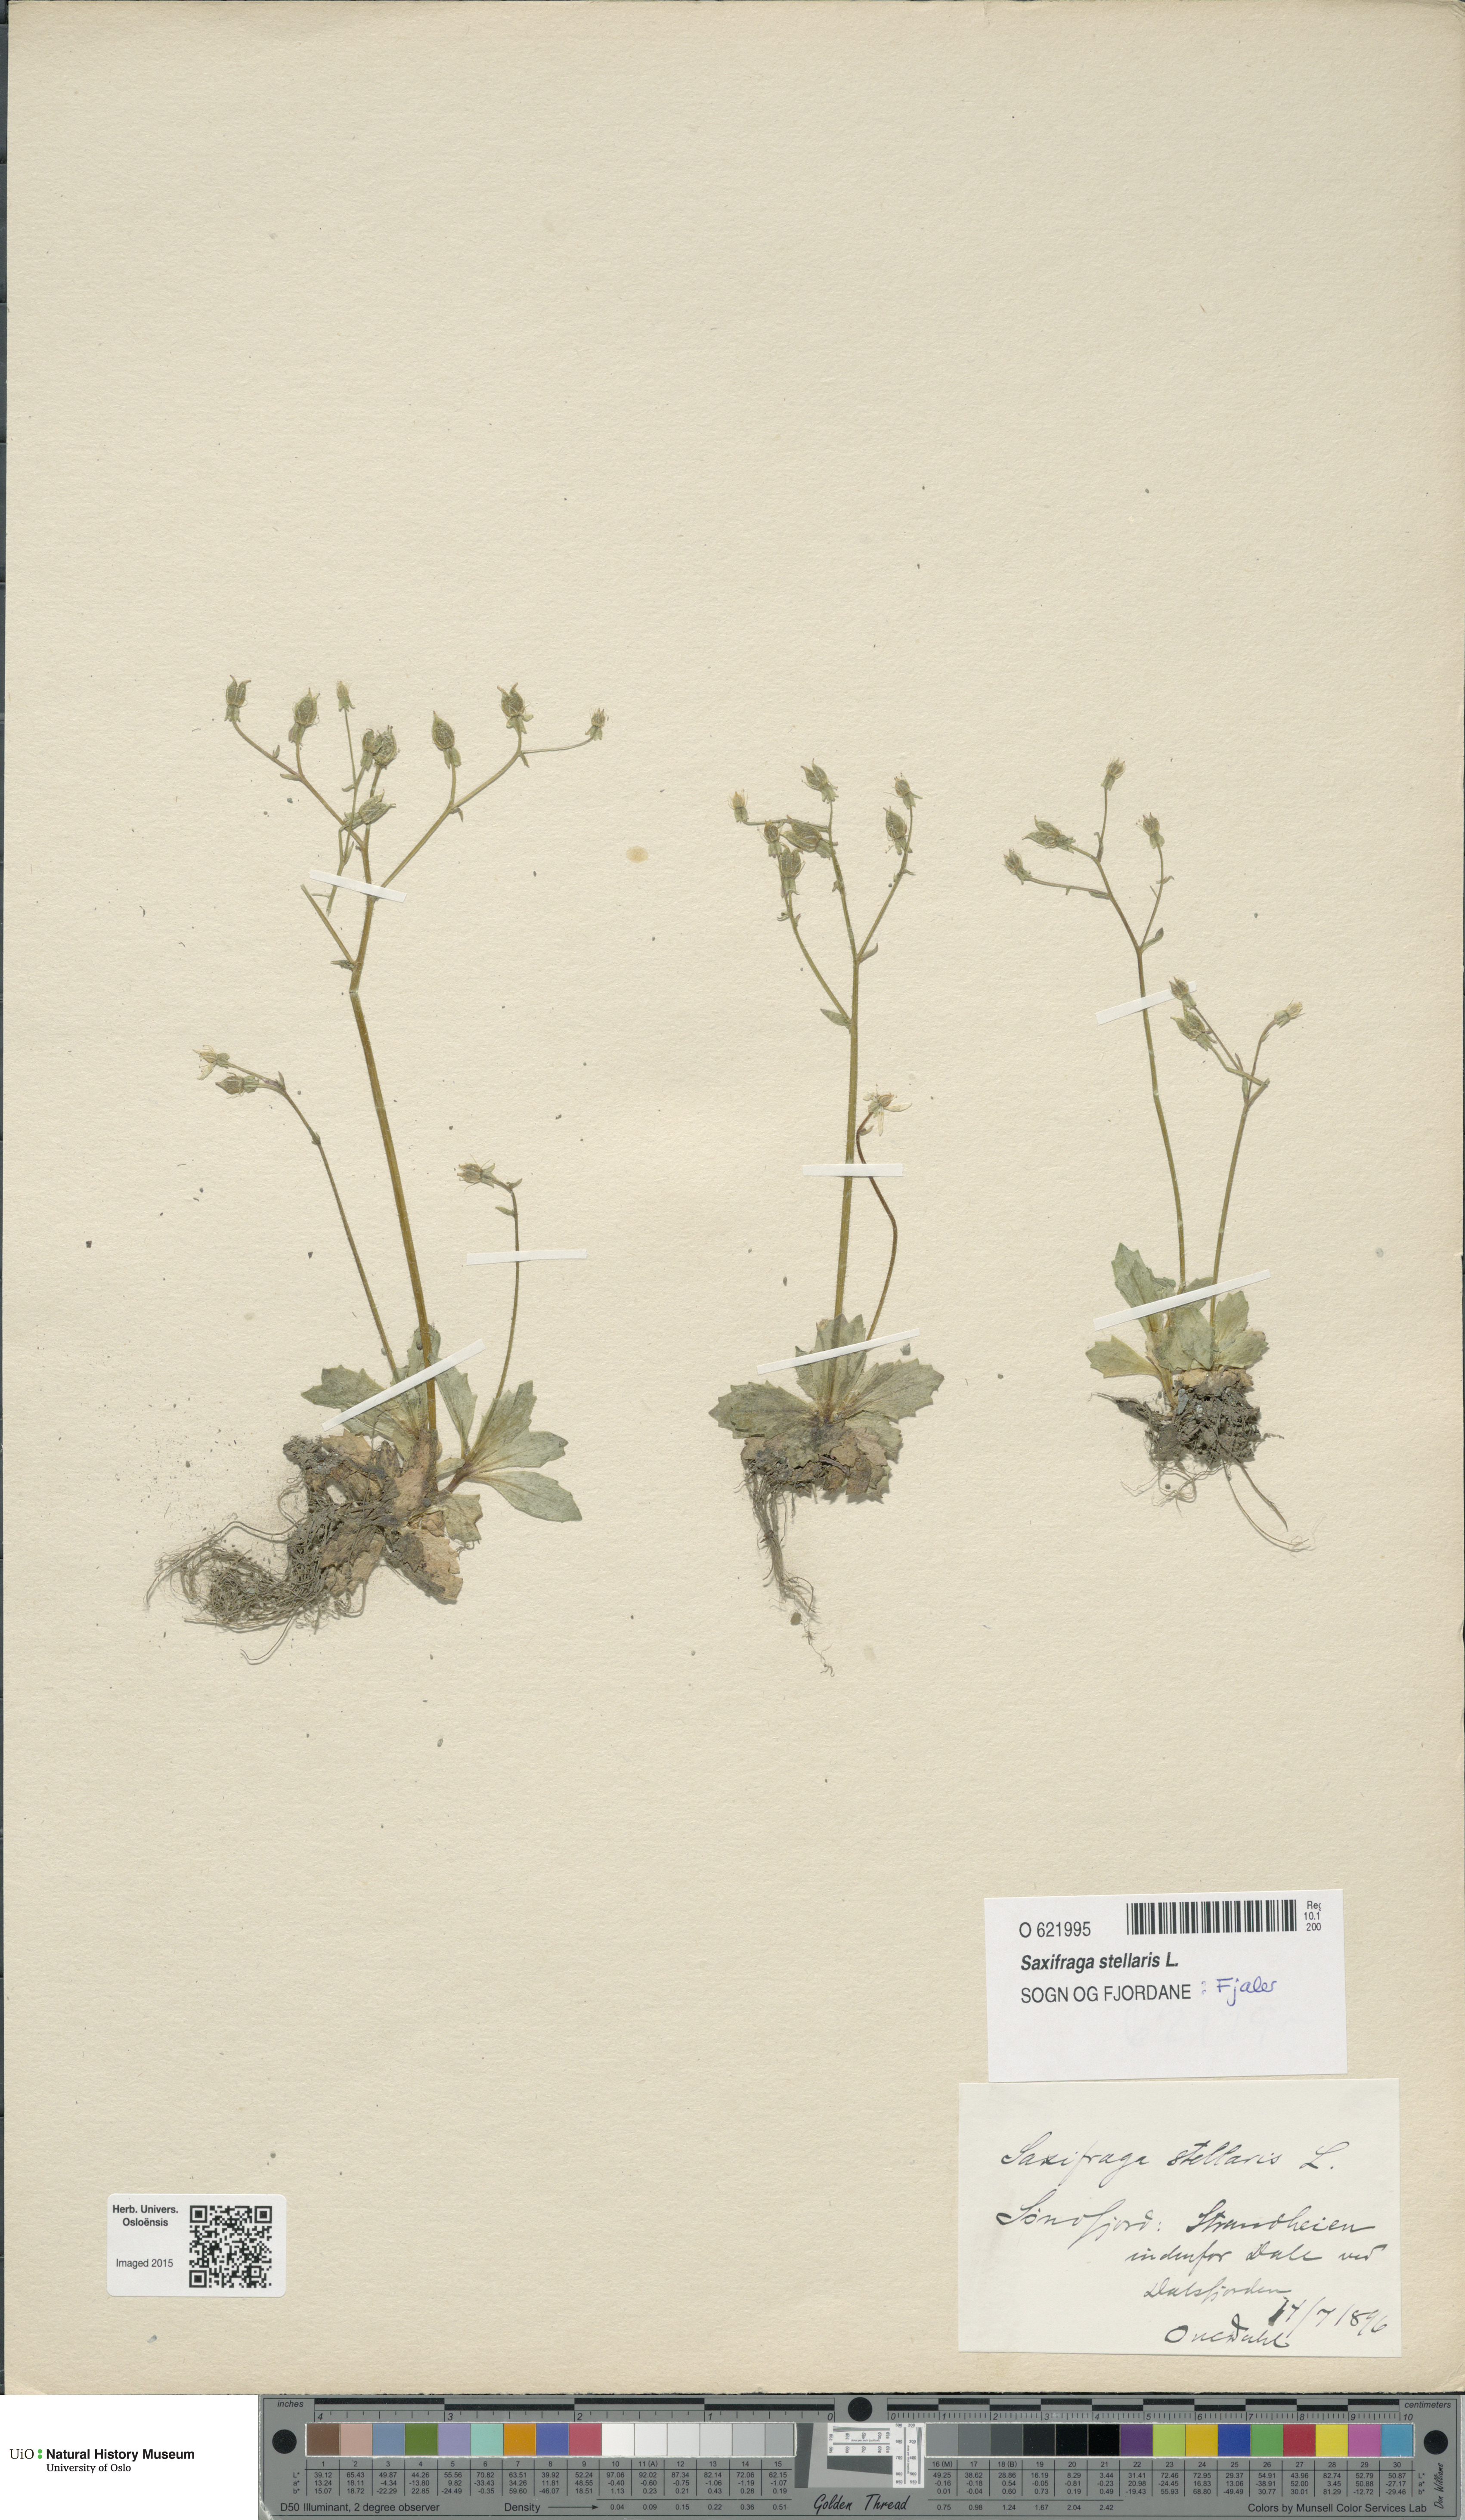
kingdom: Plantae
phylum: Tracheophyta
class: Magnoliopsida
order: Saxifragales
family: Saxifragaceae
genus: Micranthes
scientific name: Micranthes stellaris
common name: Starry saxifrage
